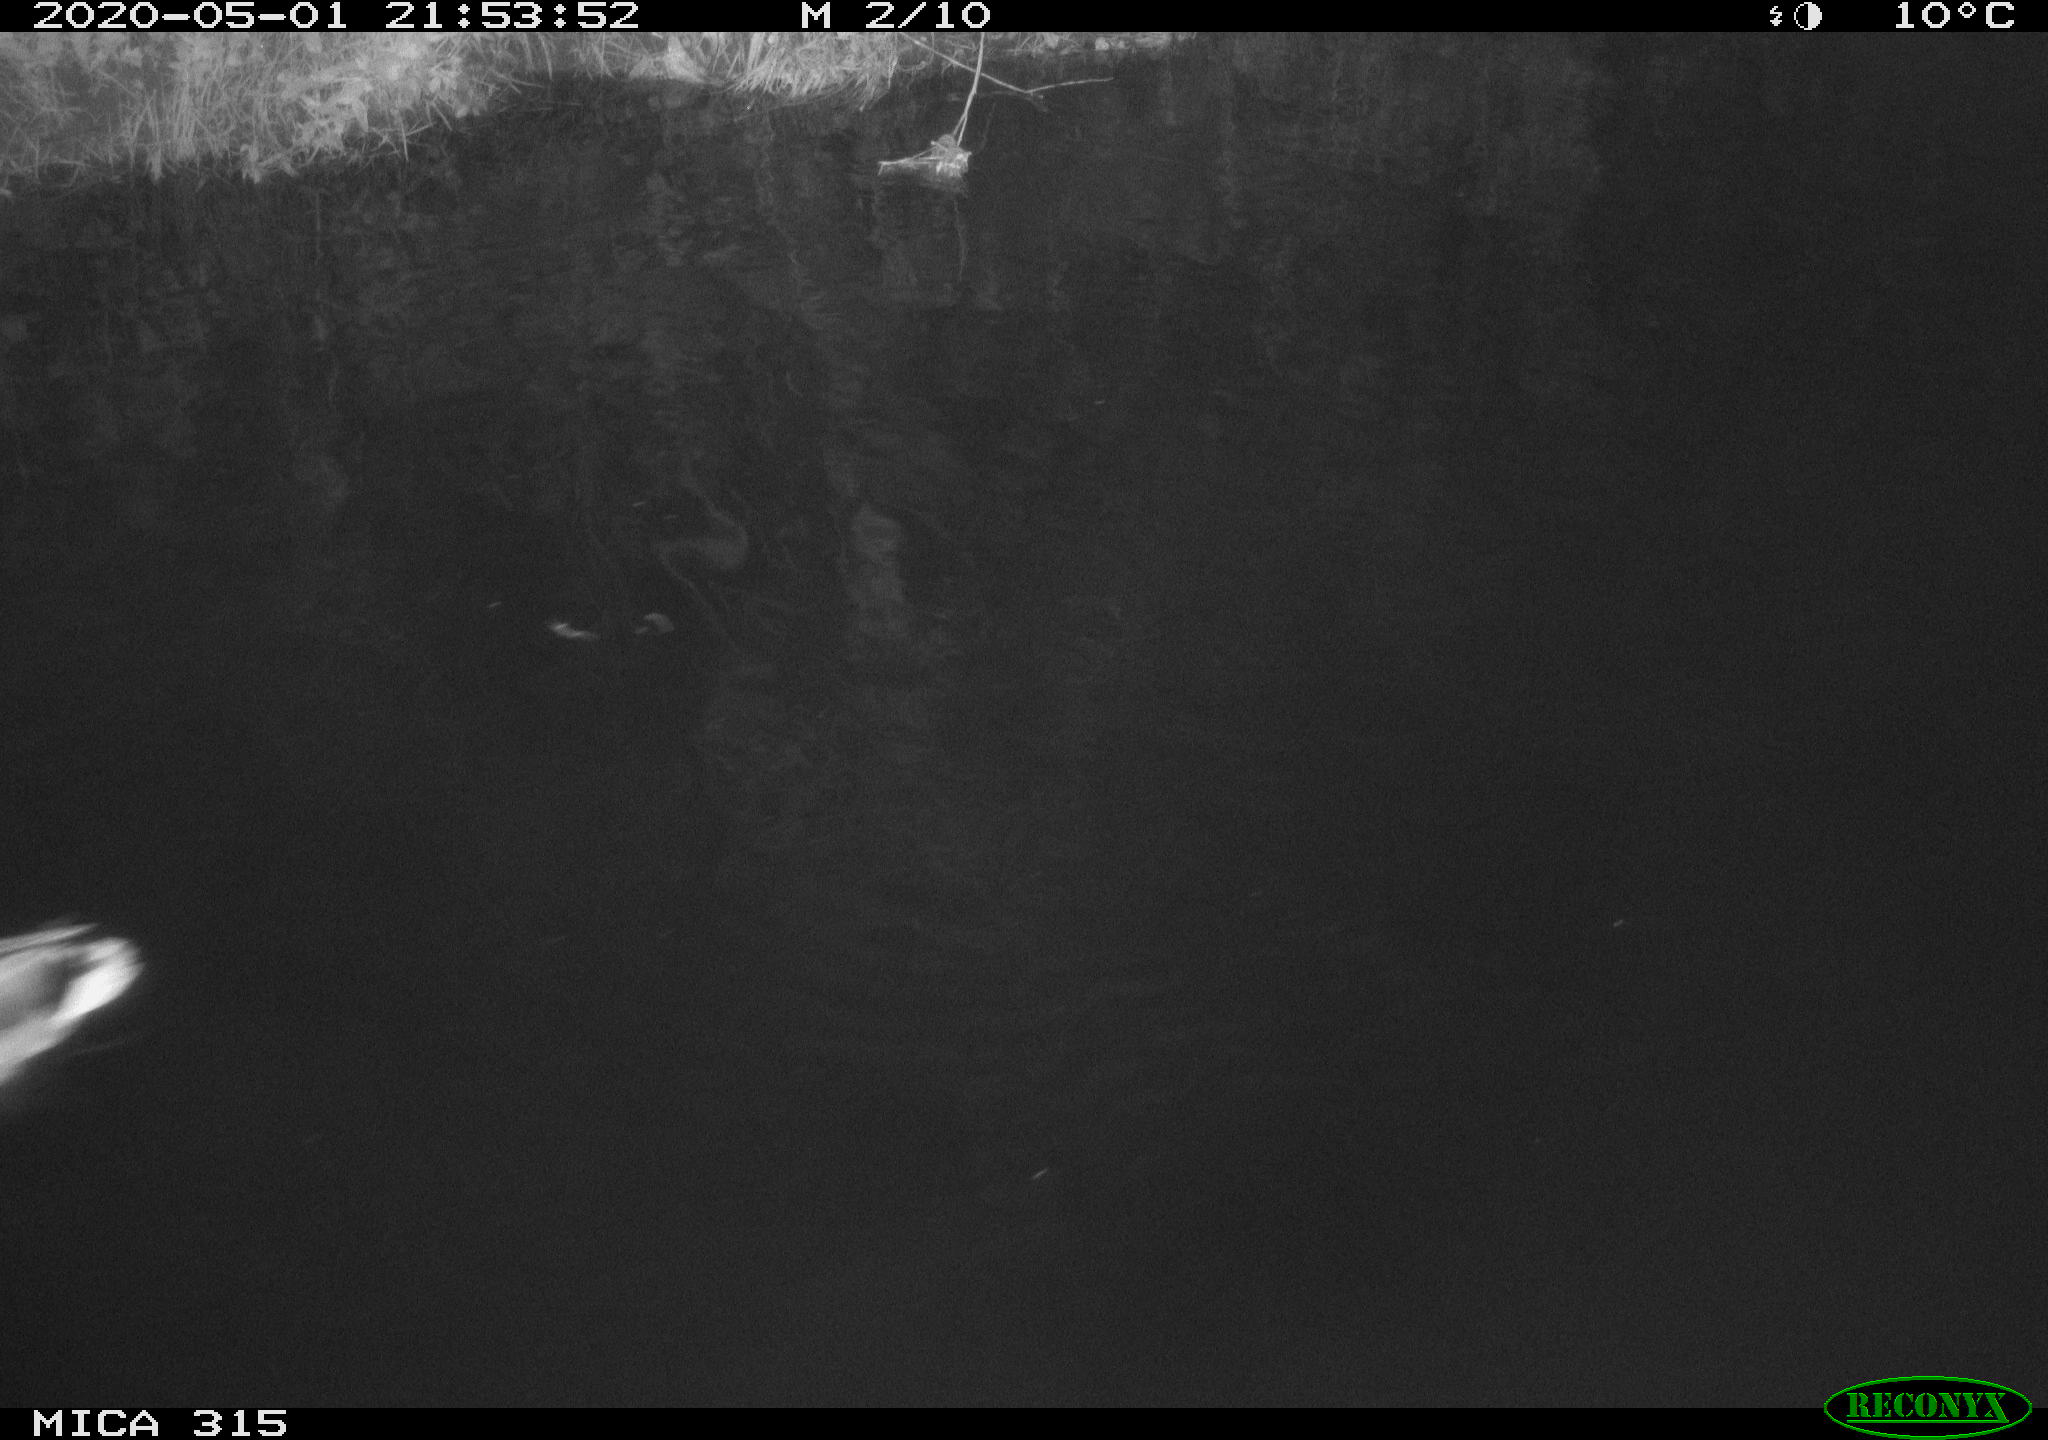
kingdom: Animalia
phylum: Chordata
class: Aves
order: Anseriformes
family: Anatidae
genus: Anas
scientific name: Anas platyrhynchos
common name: Mallard
